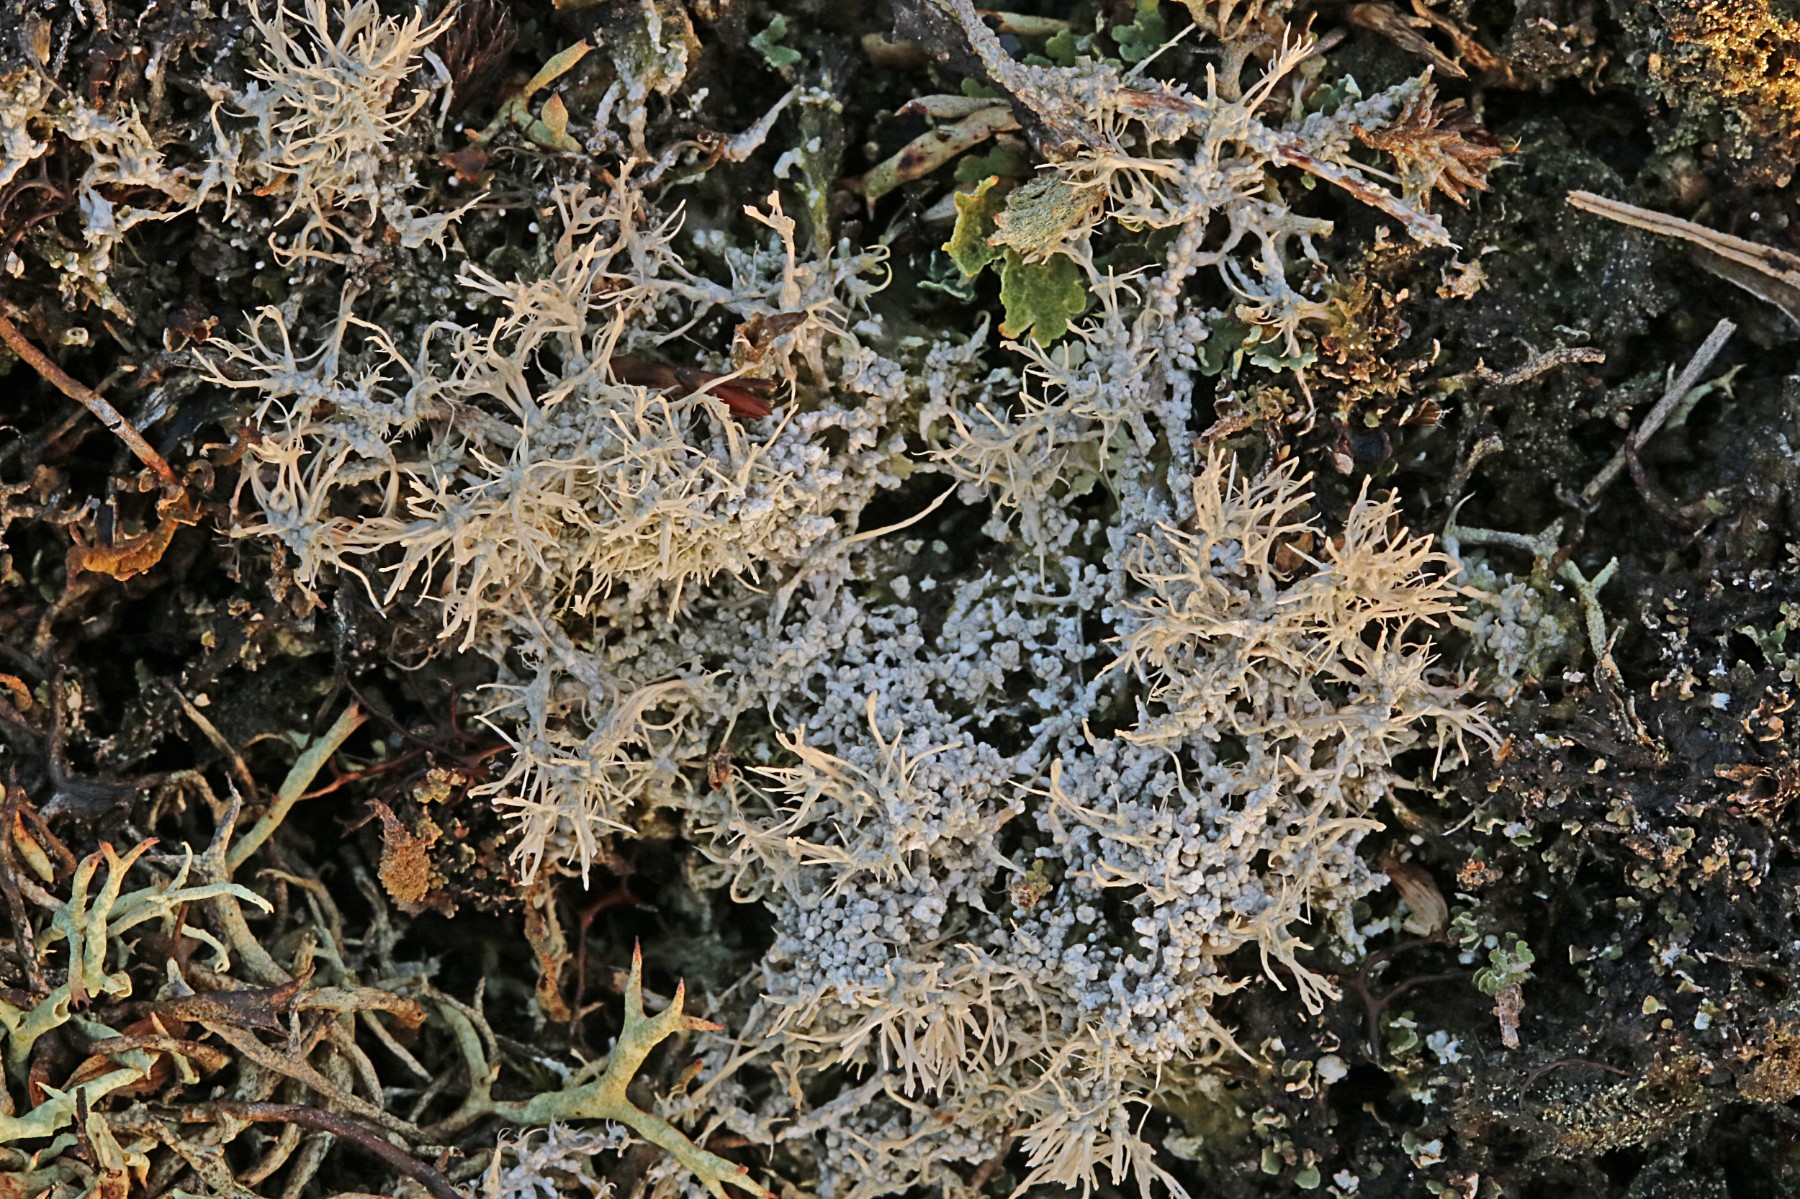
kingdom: Fungi
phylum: Ascomycota
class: Lecanoromycetes
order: Pertusariales
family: Ochrolechiaceae
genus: Ochrolechia
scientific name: Ochrolechia frigida
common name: fjeld-blegskivelav
